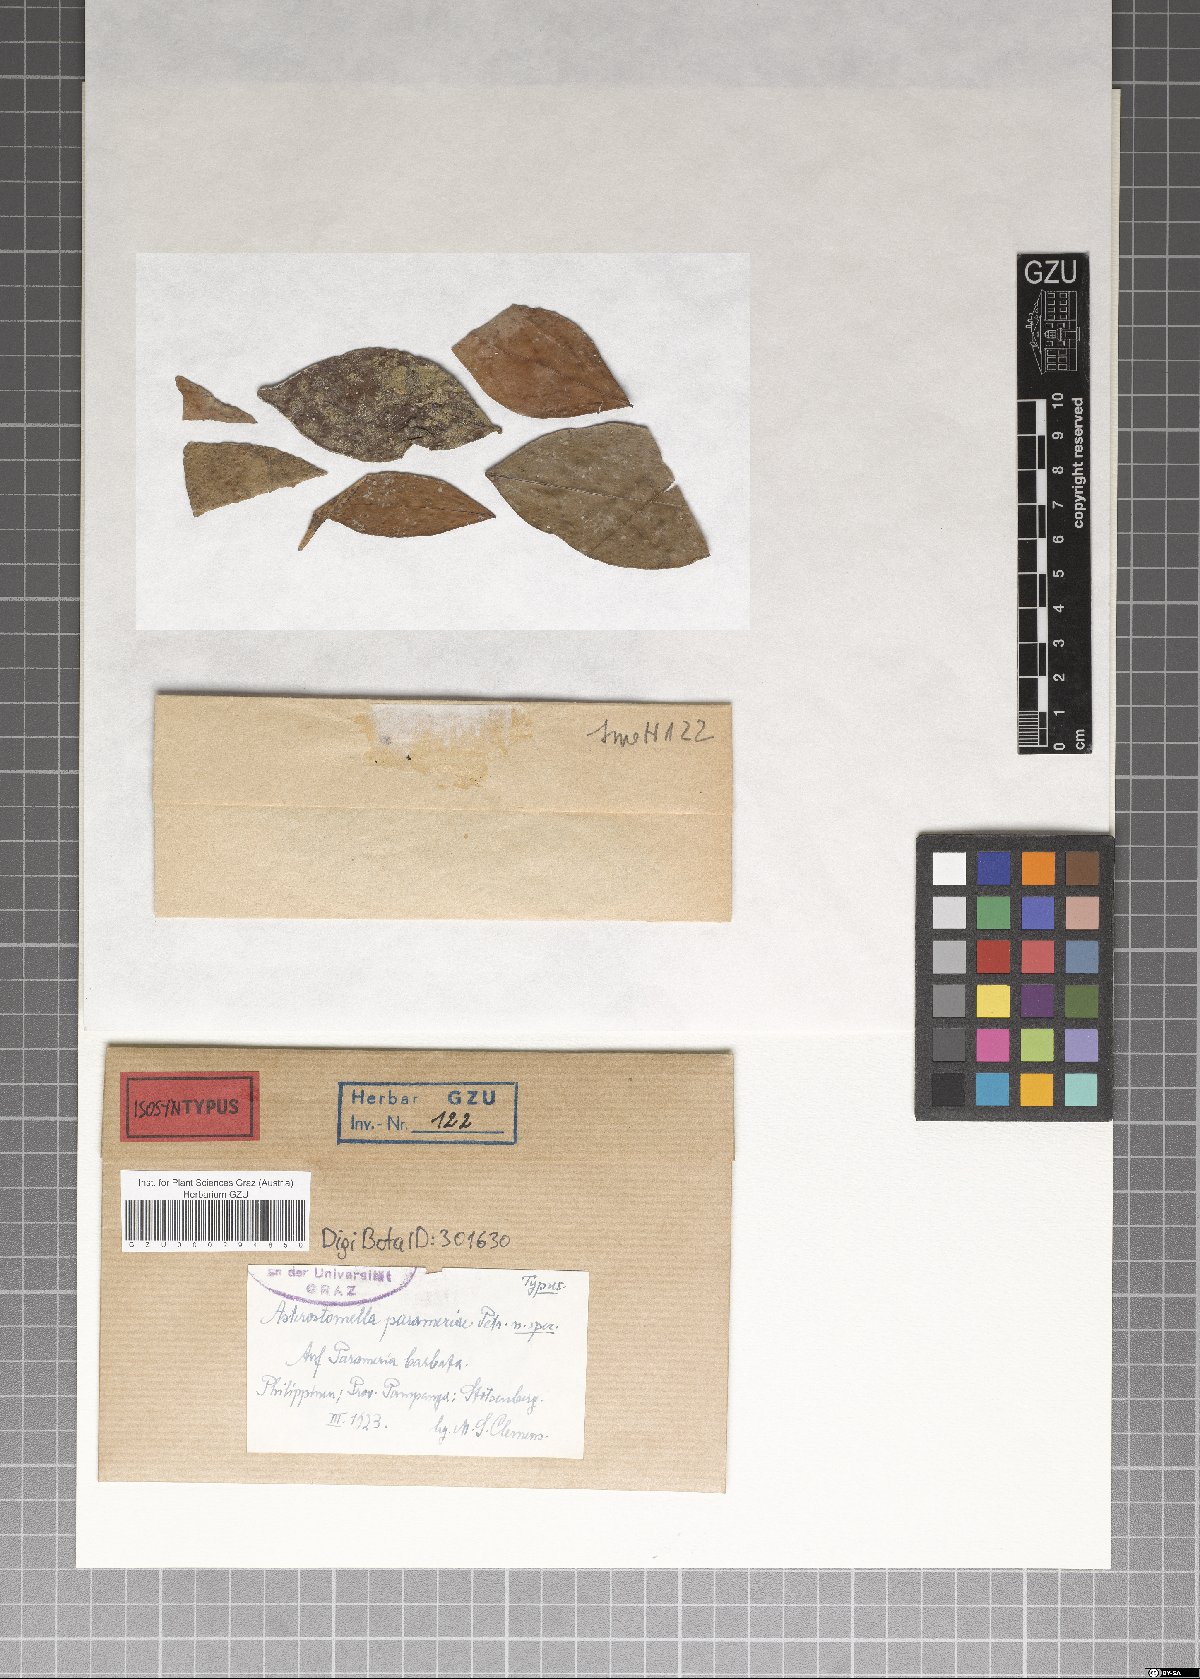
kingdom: Fungi
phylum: Ascomycota
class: Dothideomycetes
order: Asterinales
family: Asterinaceae
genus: Asterostomella
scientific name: Asterostomella parameriae
